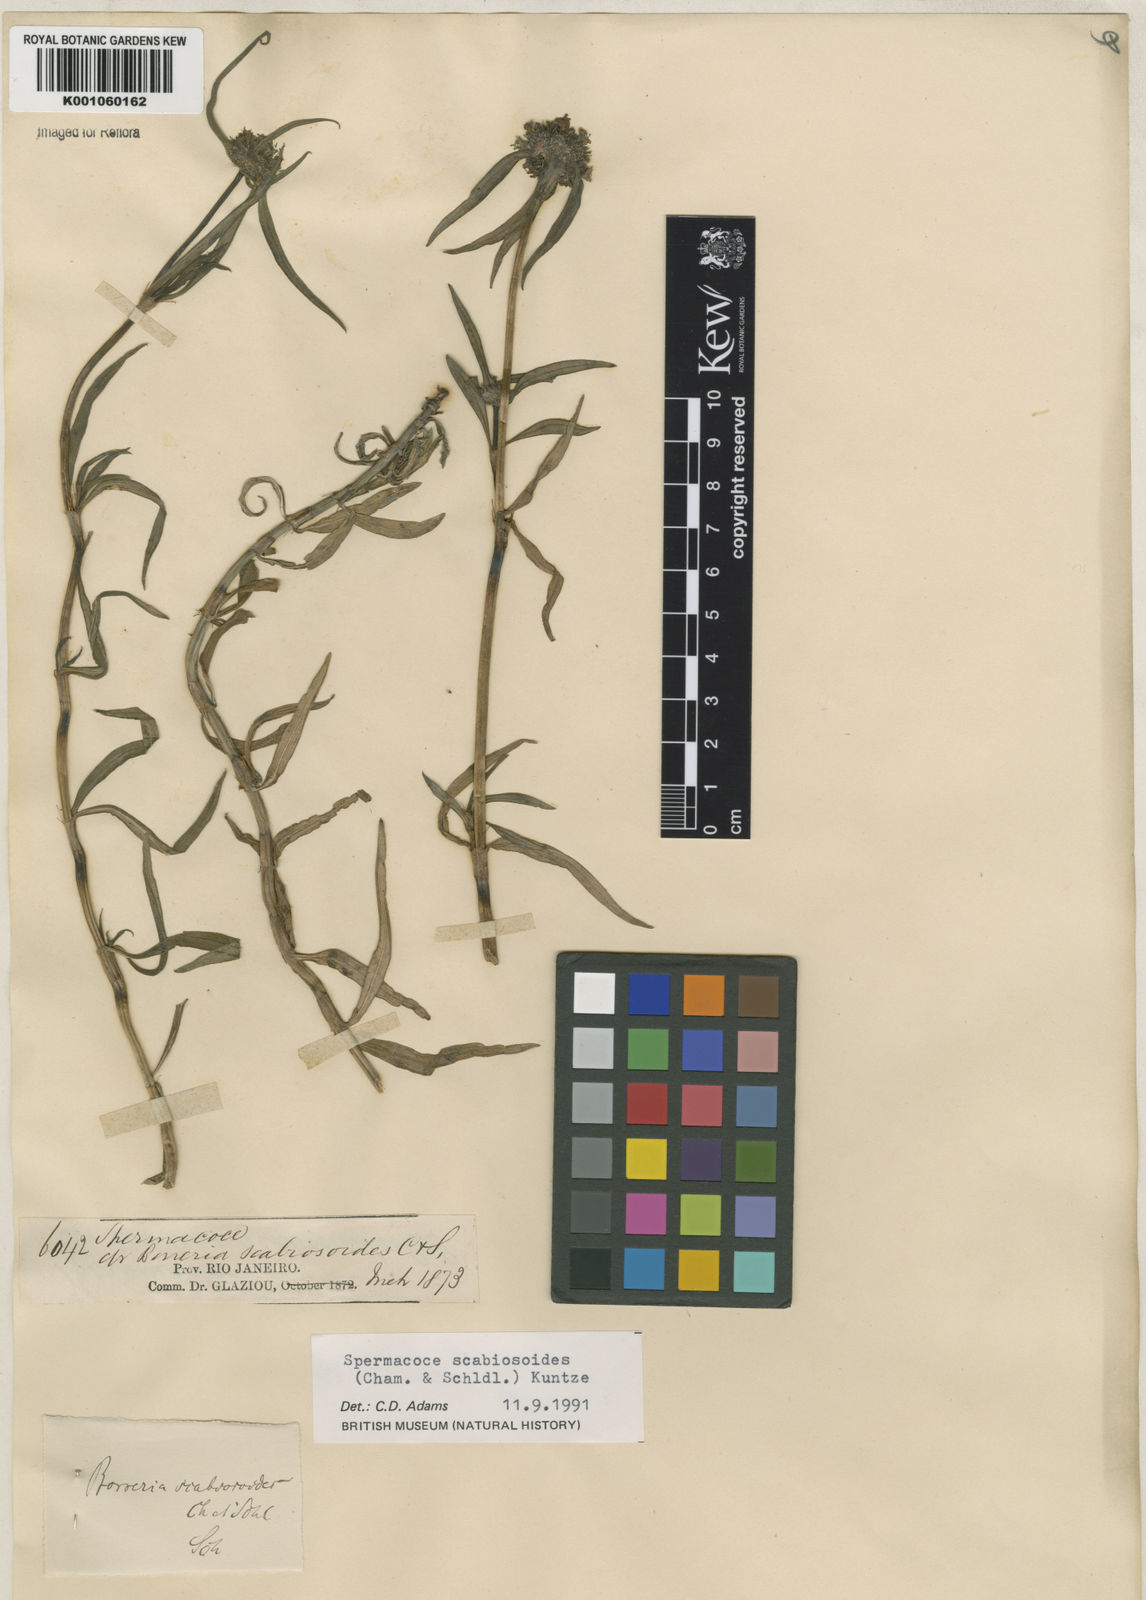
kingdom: Plantae
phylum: Tracheophyta
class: Magnoliopsida
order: Gentianales
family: Rubiaceae
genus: Spermacoce
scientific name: Spermacoce scabiosoides
